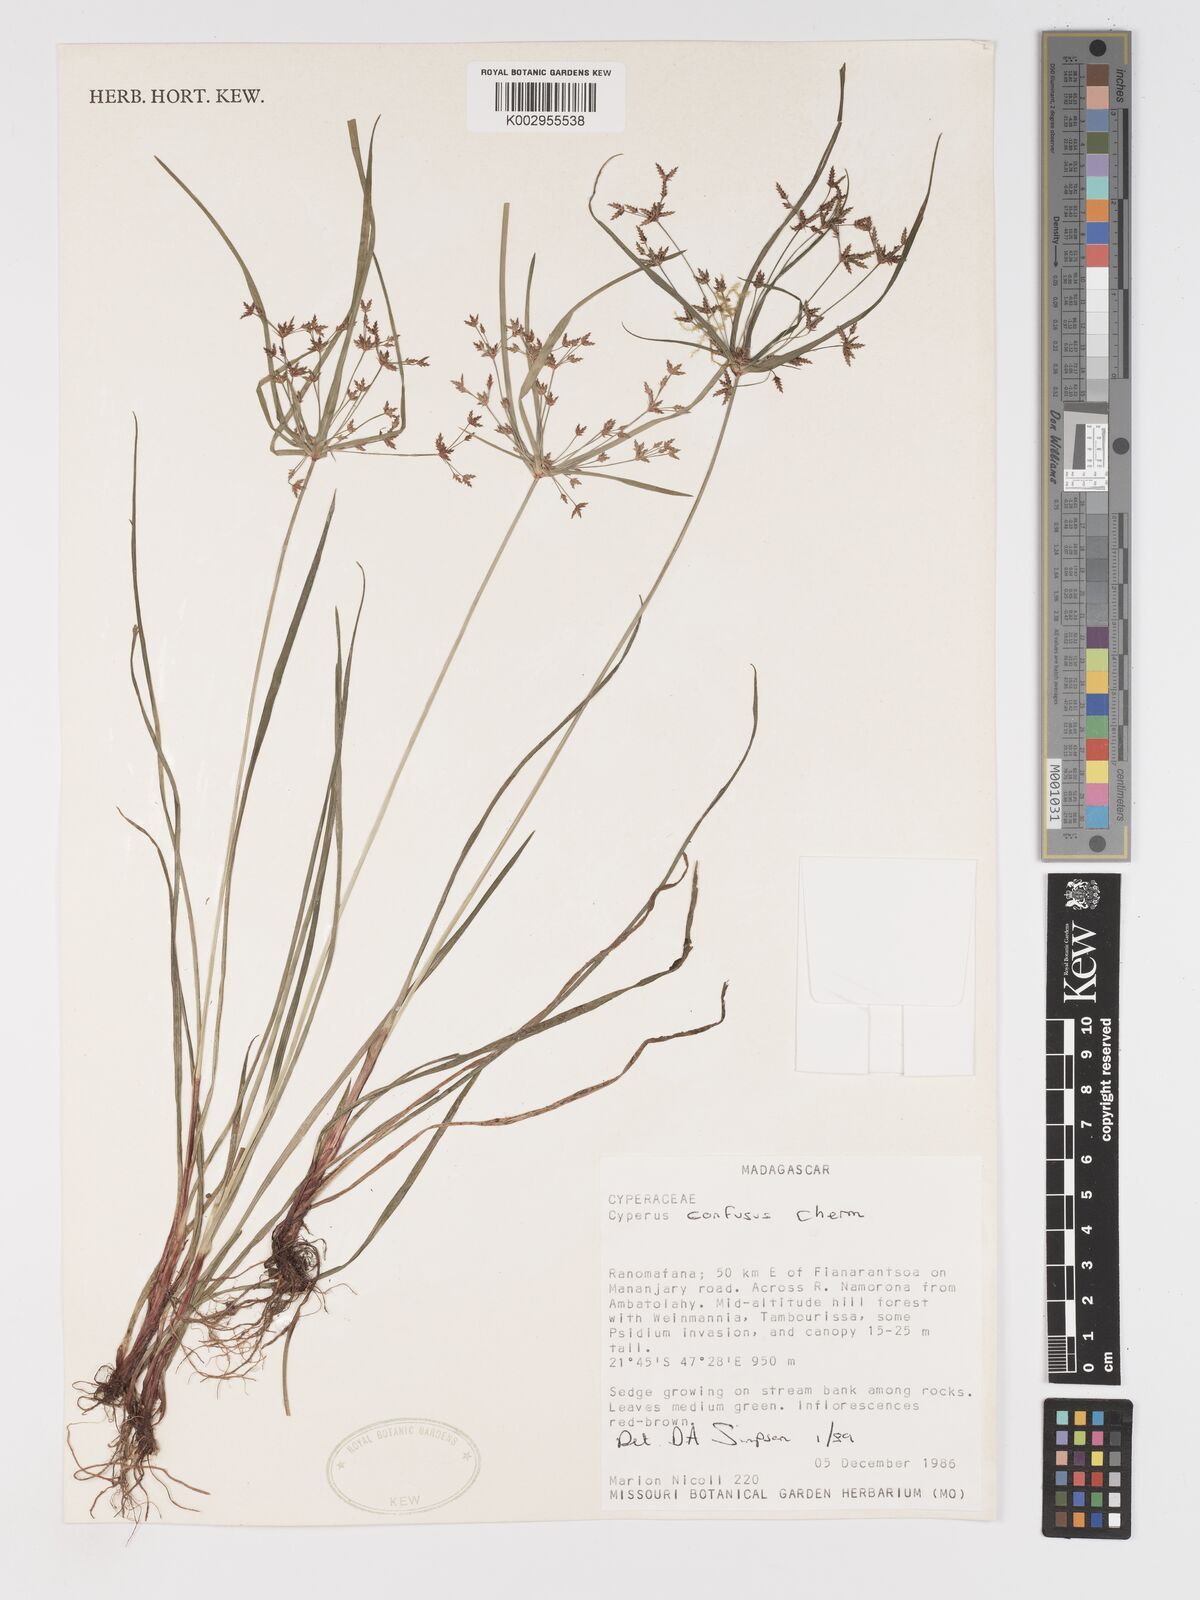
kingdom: Plantae
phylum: Tracheophyta
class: Liliopsida
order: Poales
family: Cyperaceae
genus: Cyperus
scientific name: Cyperus longifolius
